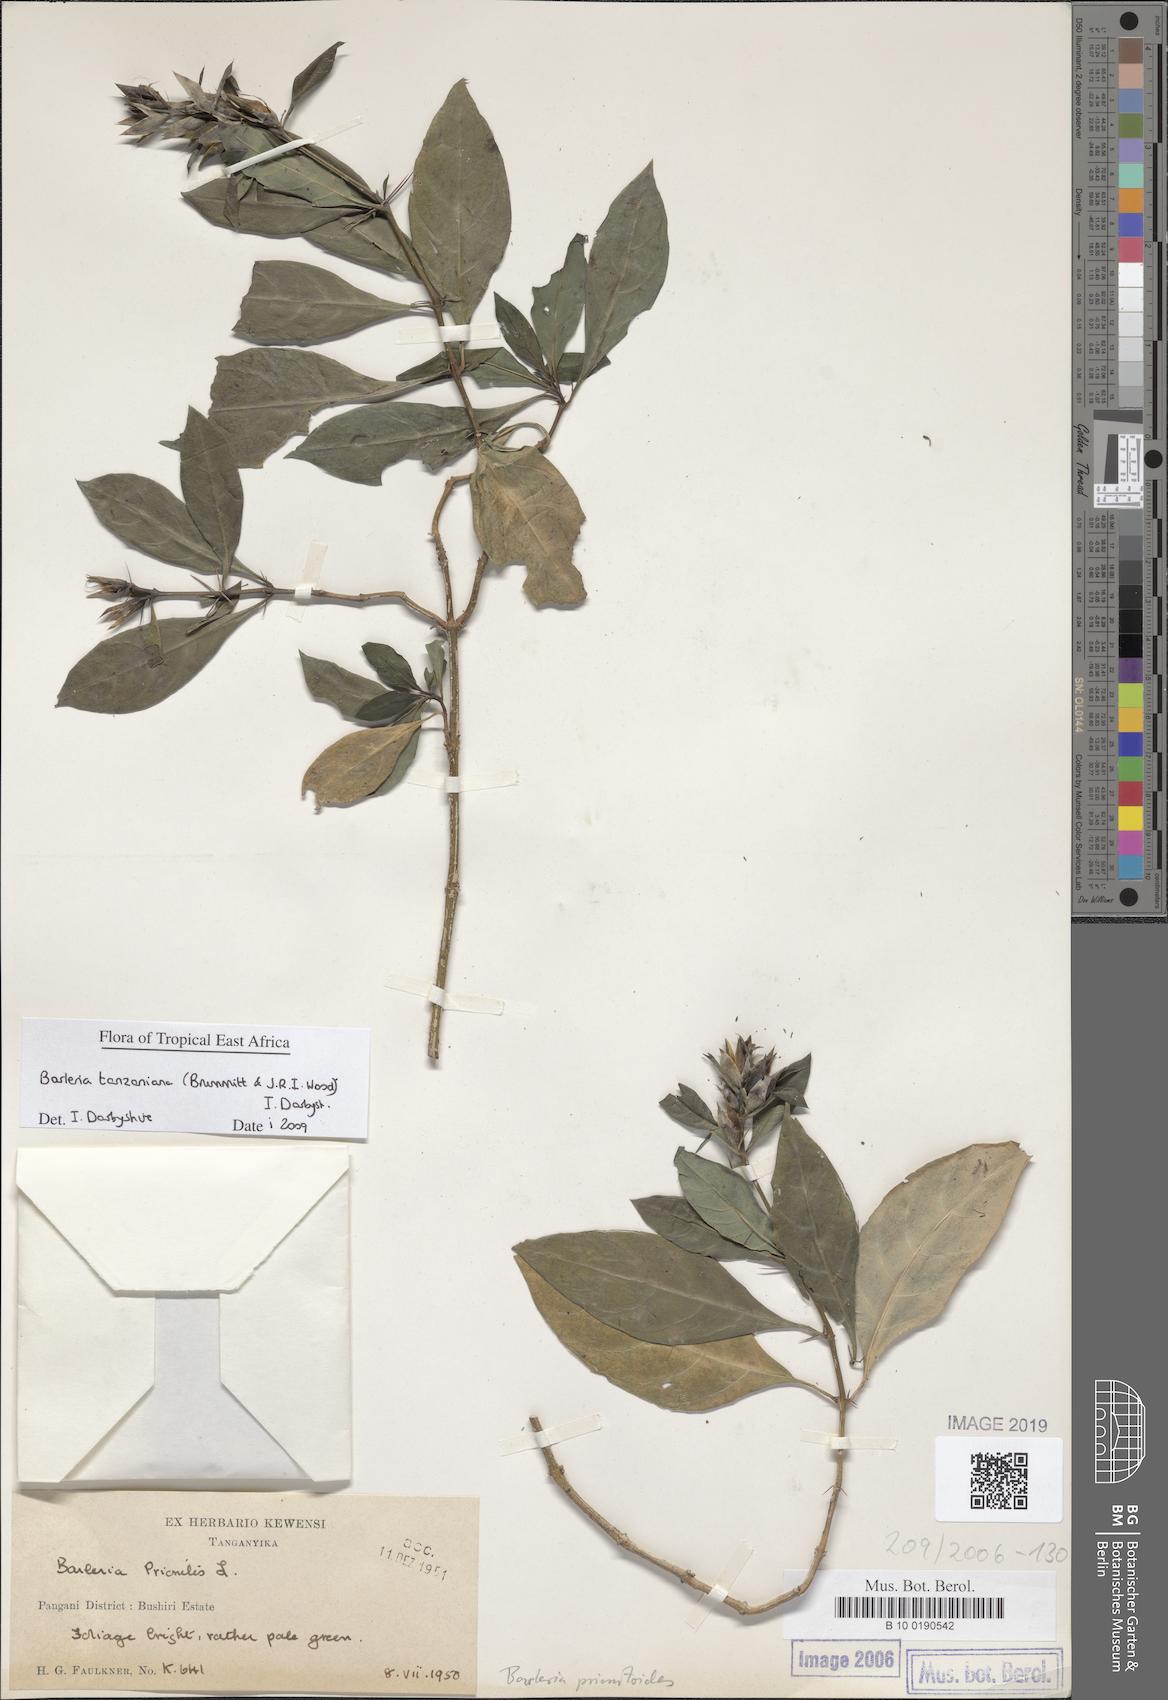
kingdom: Plantae
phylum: Tracheophyta
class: Magnoliopsida
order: Lamiales
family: Acanthaceae
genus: Barleria
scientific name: Barleria prionitis
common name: Barleria
